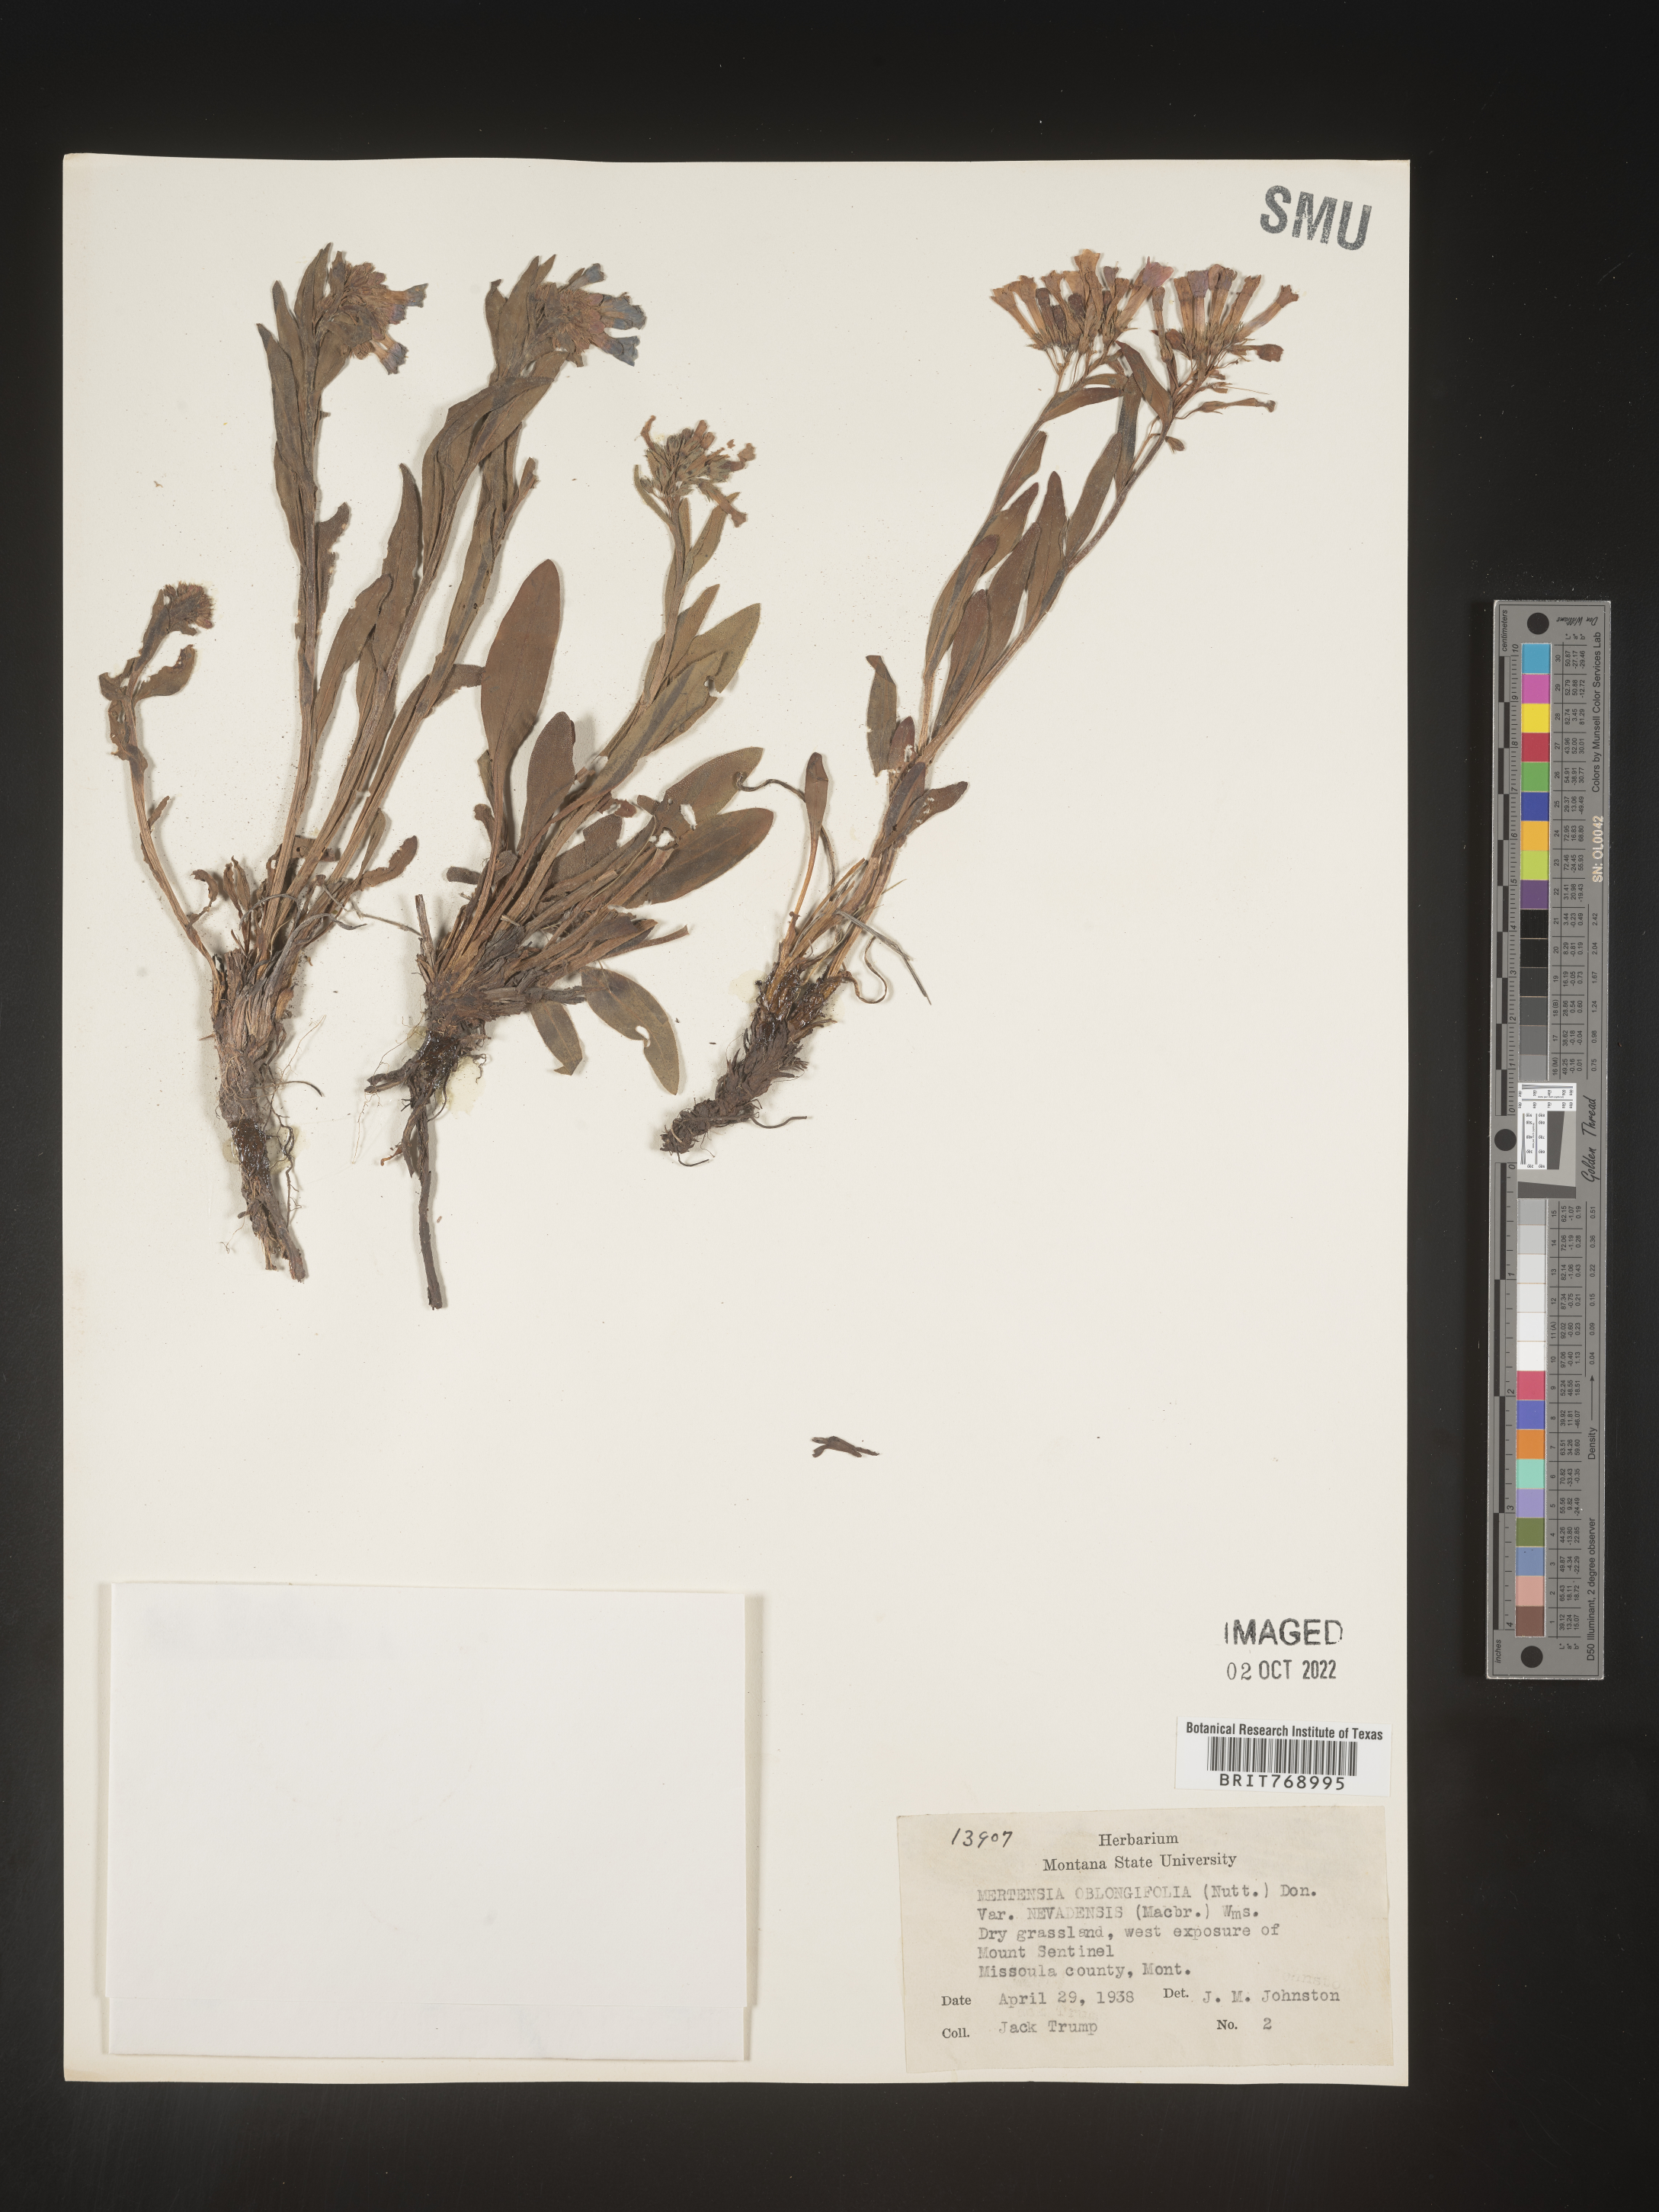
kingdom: Plantae
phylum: Tracheophyta
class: Magnoliopsida
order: Boraginales
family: Boraginaceae
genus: Mertensia
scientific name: Mertensia
